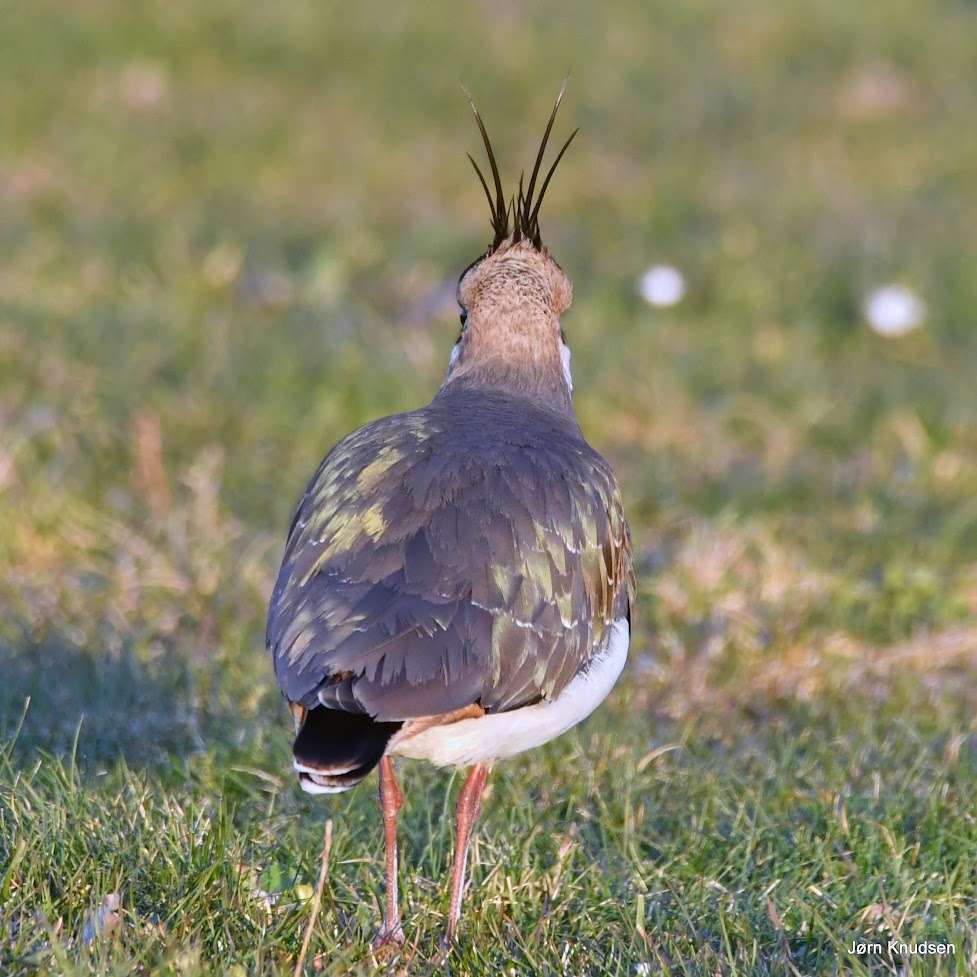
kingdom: Animalia
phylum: Chordata
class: Aves
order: Charadriiformes
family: Charadriidae
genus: Vanellus
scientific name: Vanellus vanellus
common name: Vibe
